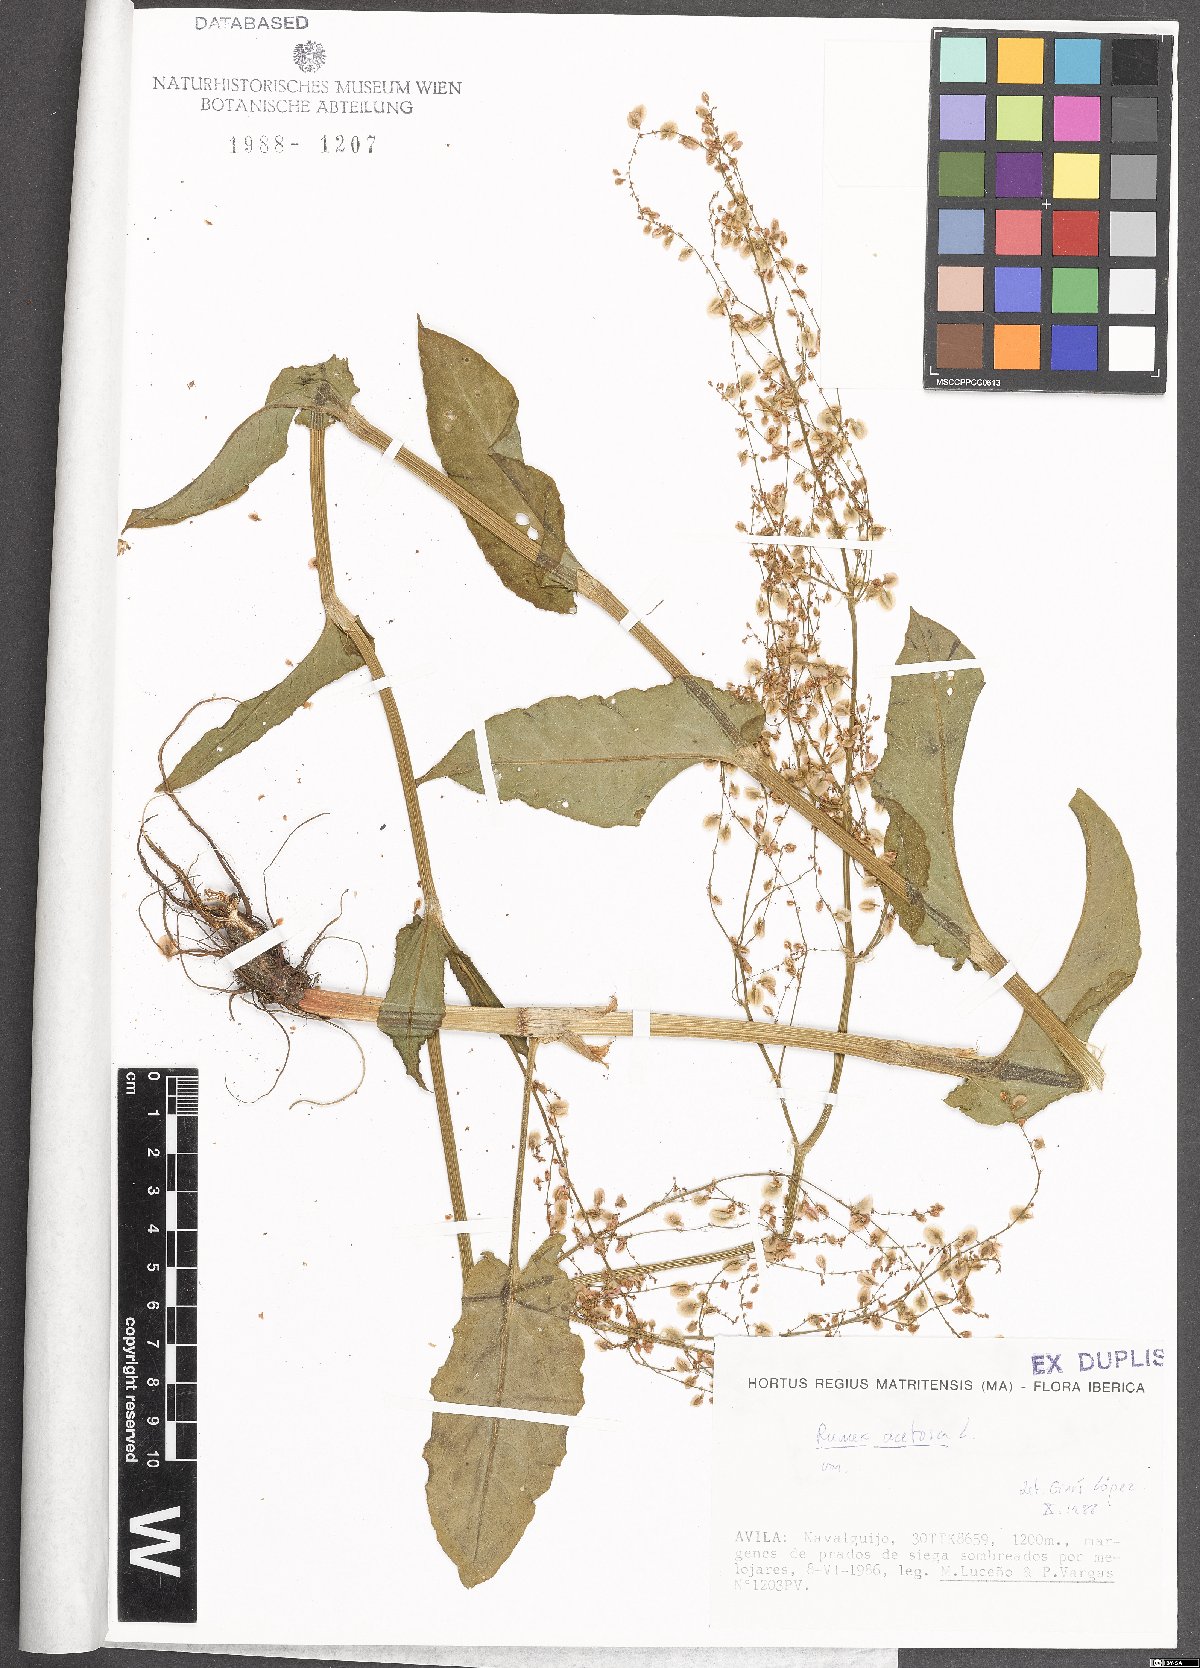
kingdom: Plantae
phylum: Tracheophyta
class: Magnoliopsida
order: Caryophyllales
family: Polygonaceae
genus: Rumex
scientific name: Rumex acetosa
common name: Garden sorrel
